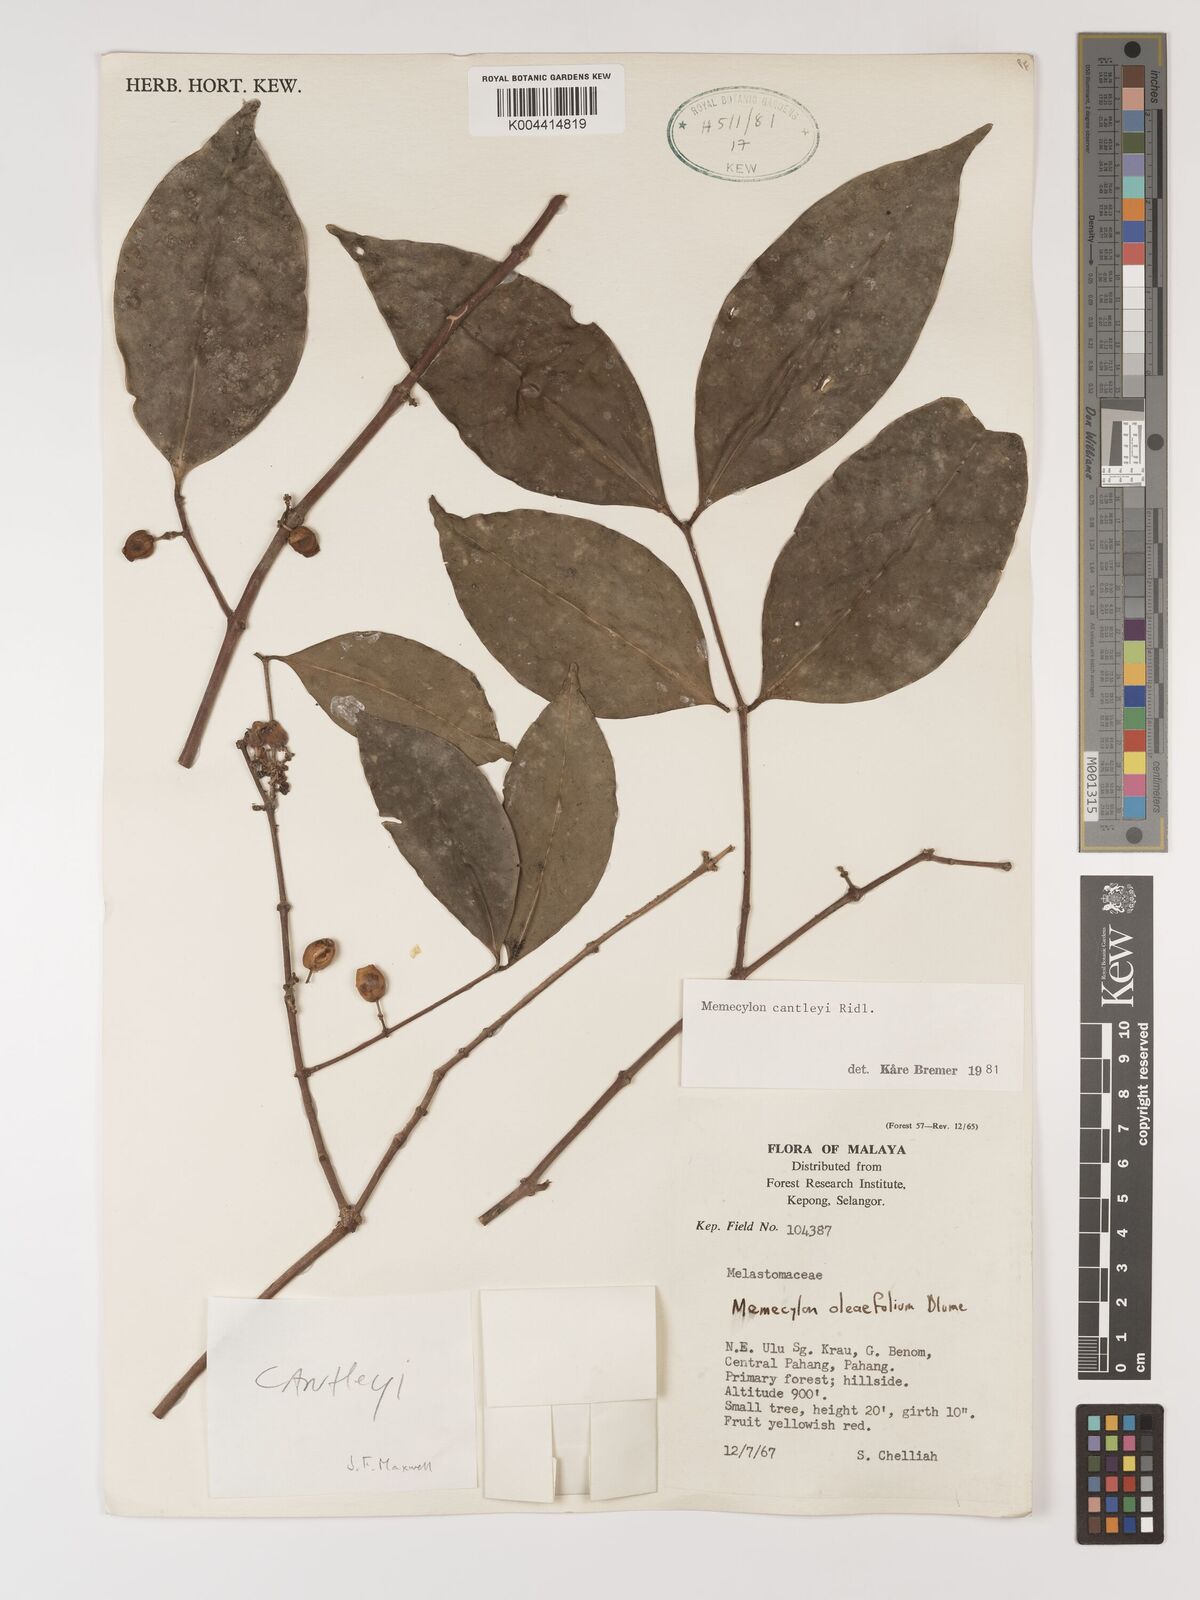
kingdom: Plantae
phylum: Tracheophyta
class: Magnoliopsida
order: Myrtales
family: Melastomataceae
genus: Memecylon
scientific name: Memecylon cantleyi
